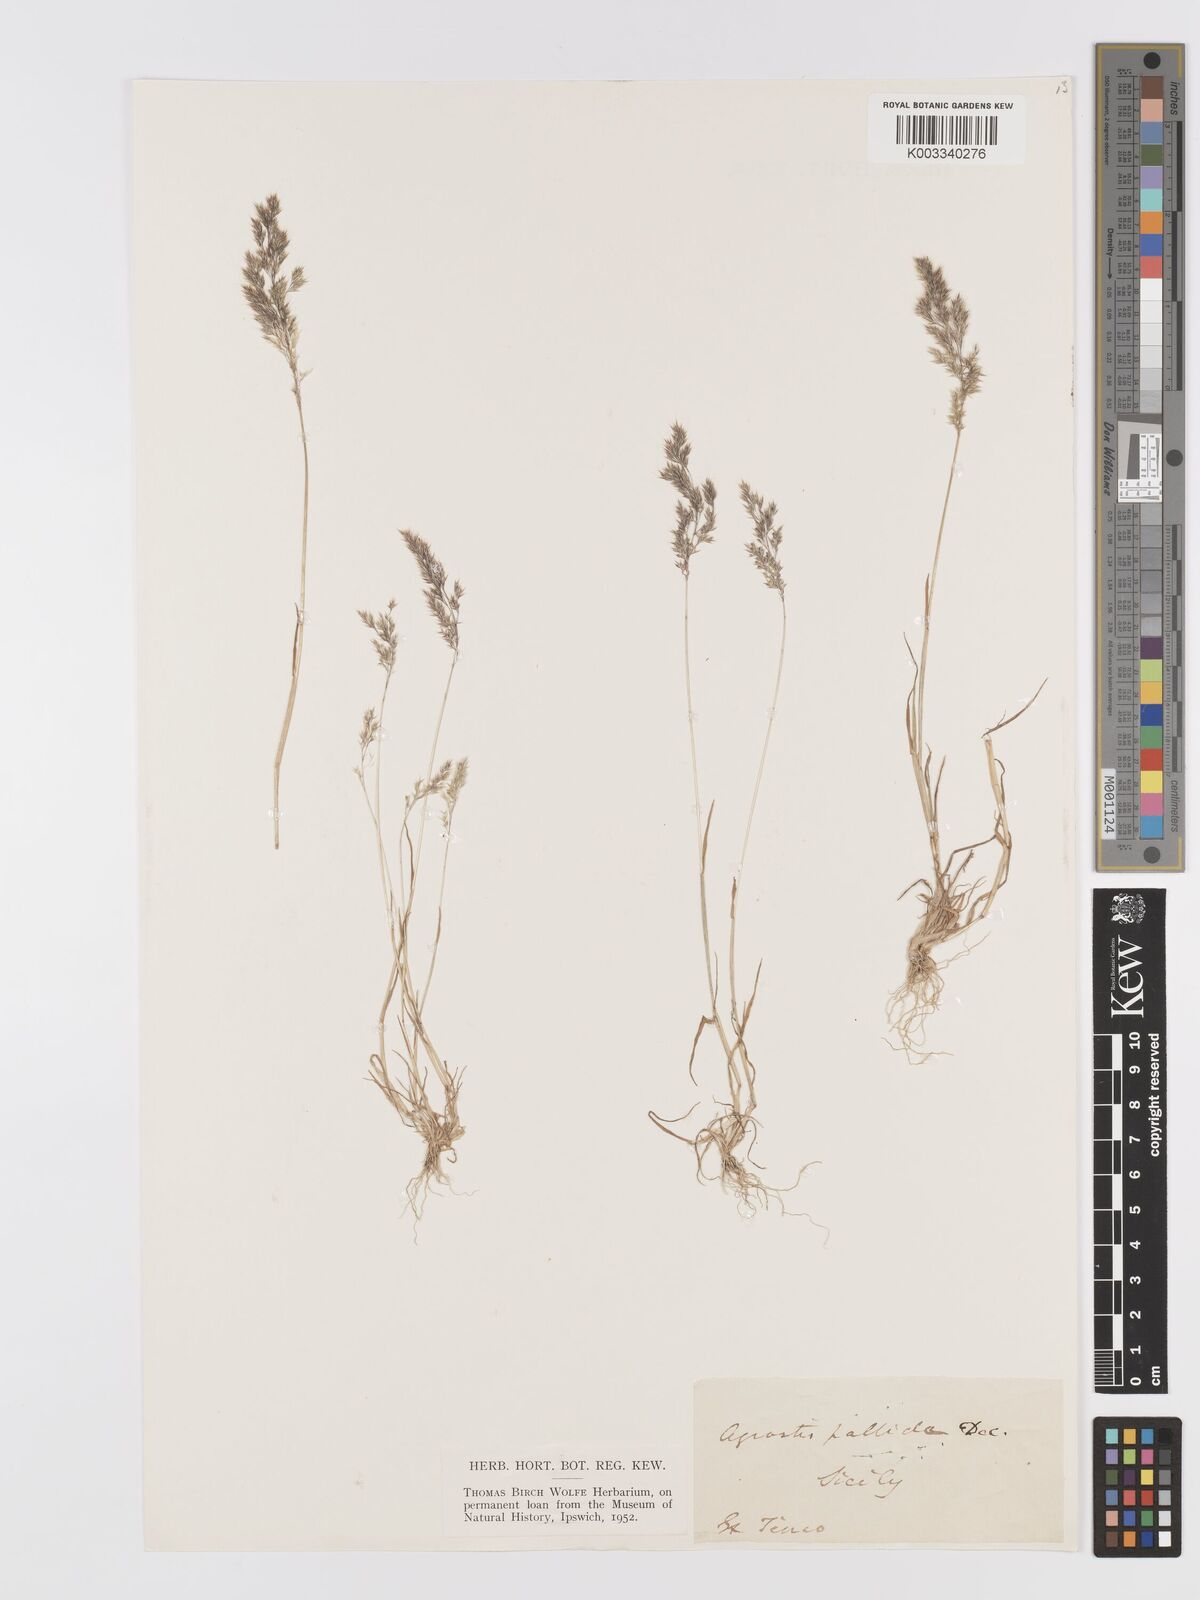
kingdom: Plantae
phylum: Tracheophyta
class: Liliopsida
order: Poales
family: Poaceae
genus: Agrostis
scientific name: Agrostis pourretii
